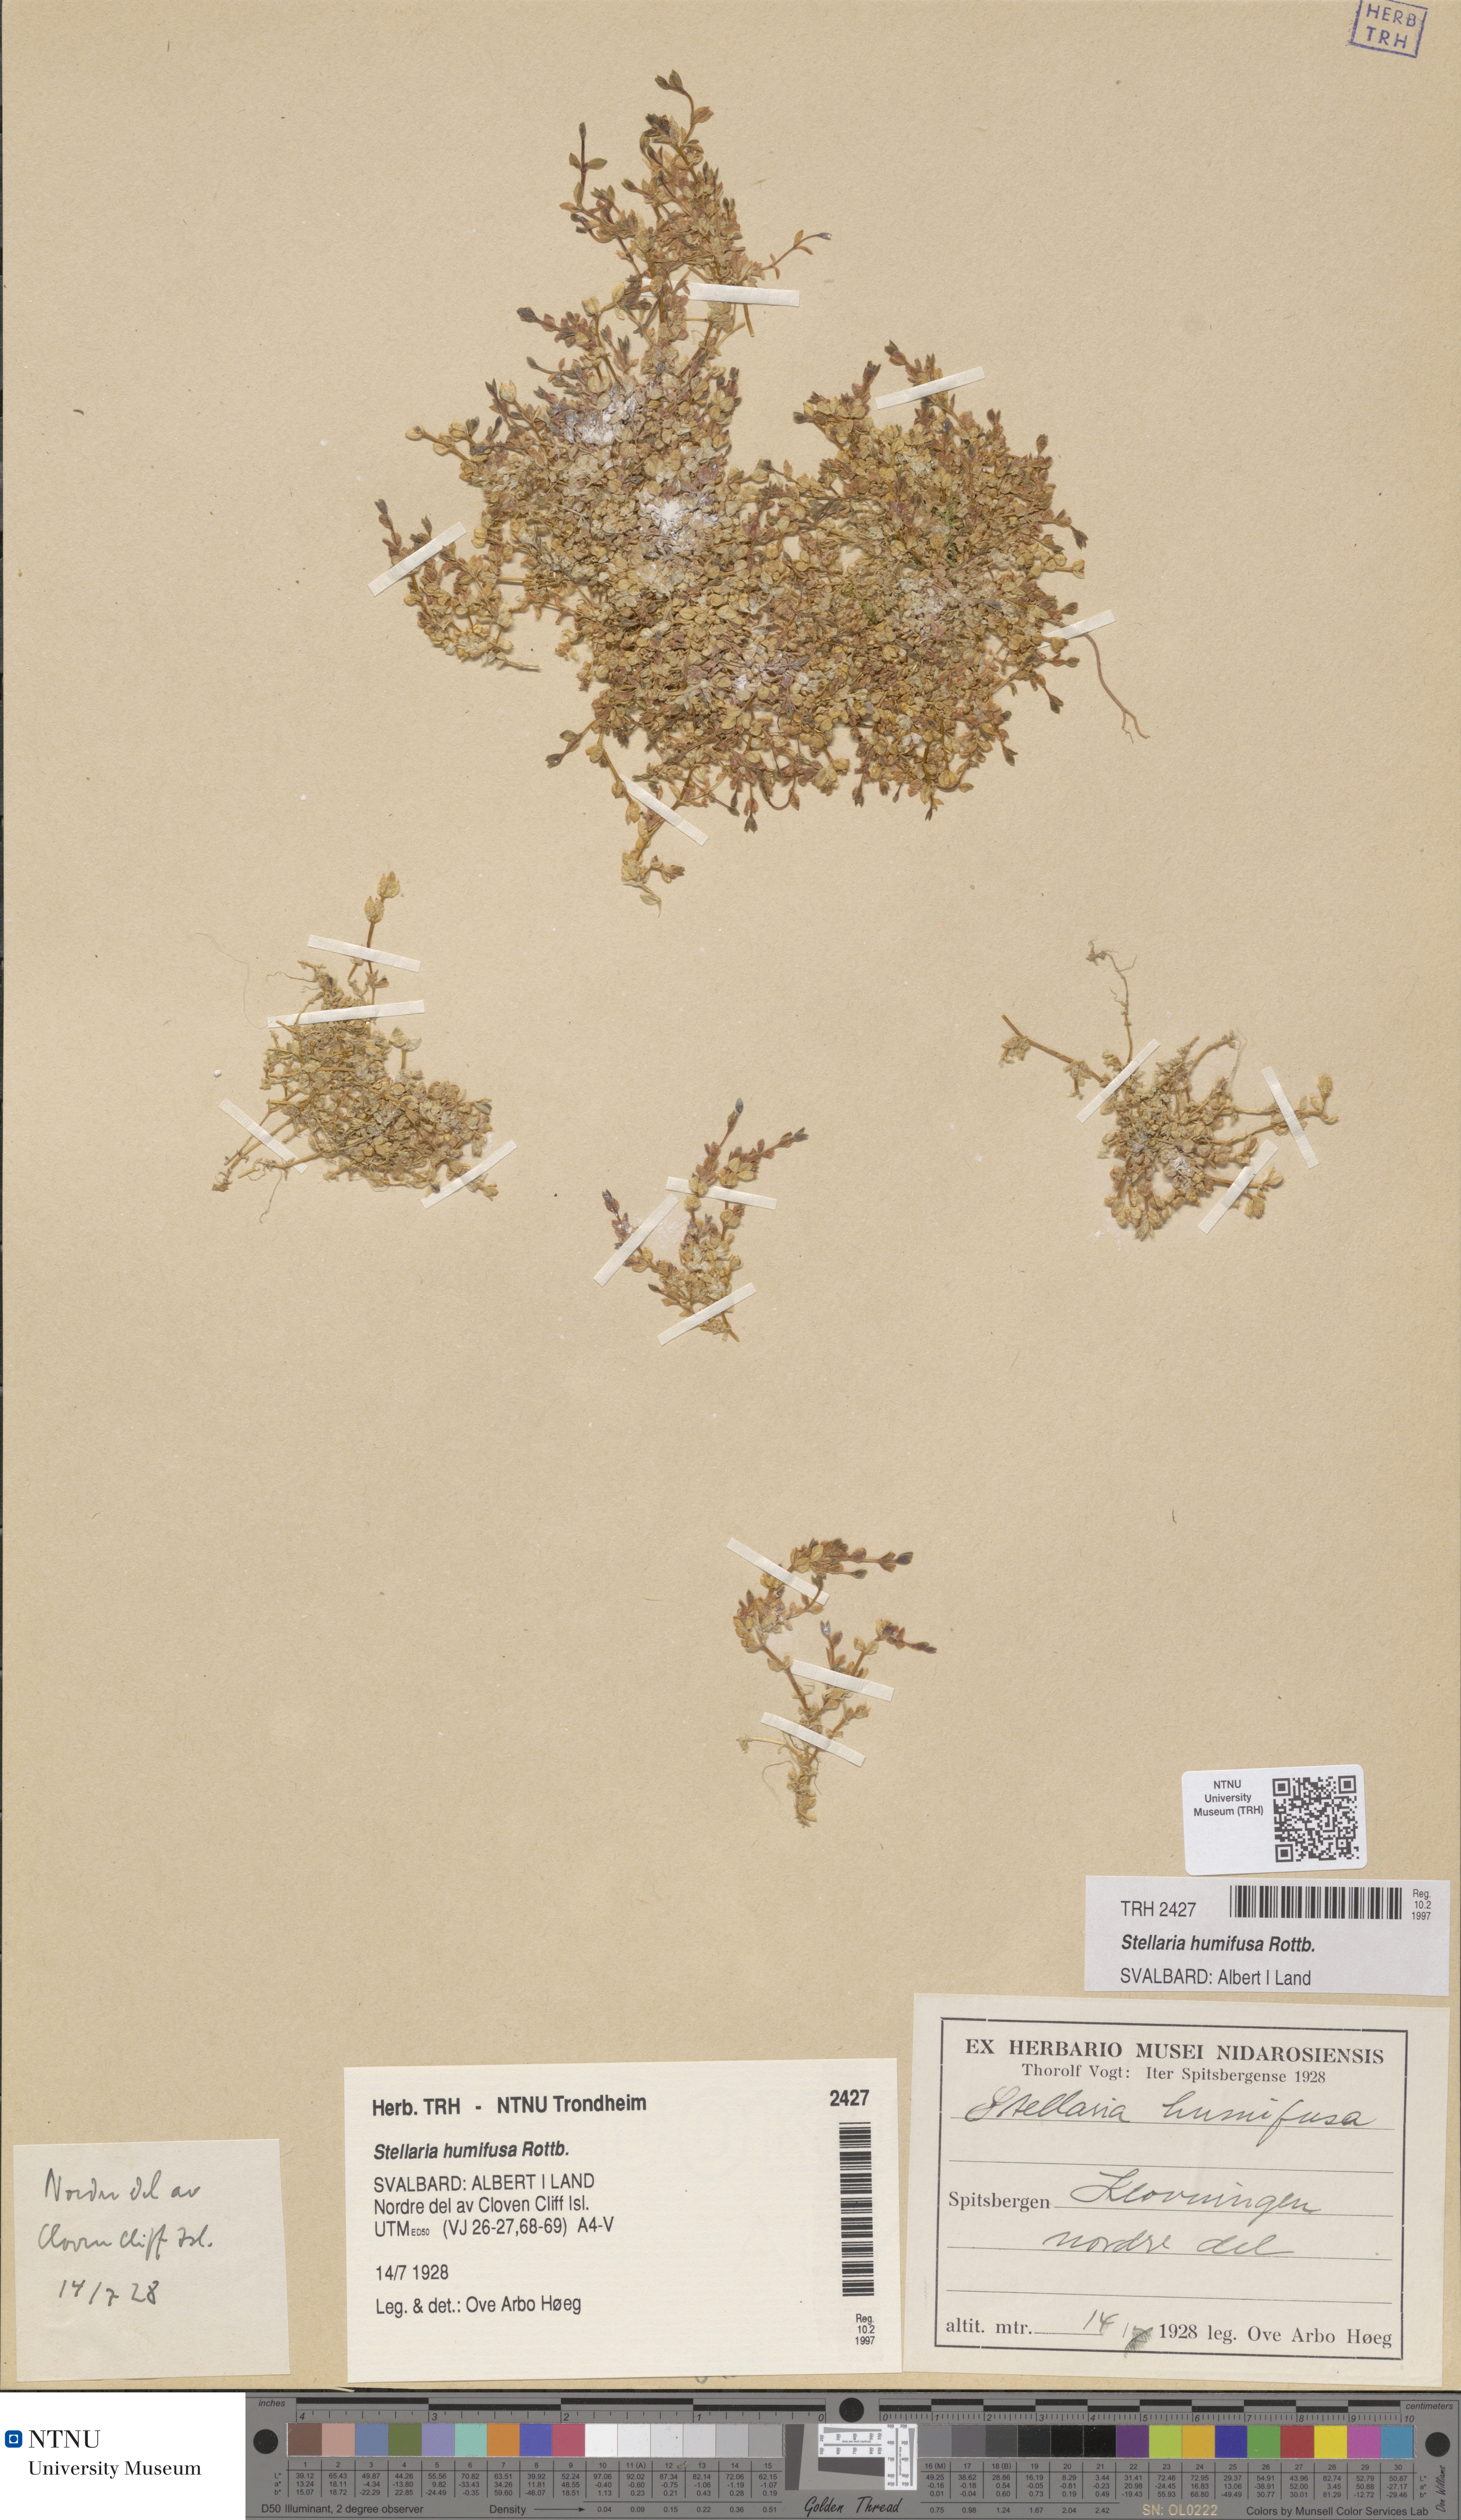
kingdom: Plantae
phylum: Tracheophyta
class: Magnoliopsida
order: Caryophyllales
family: Caryophyllaceae
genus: Stellaria
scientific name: Stellaria humifusa
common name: Creeping starwort
